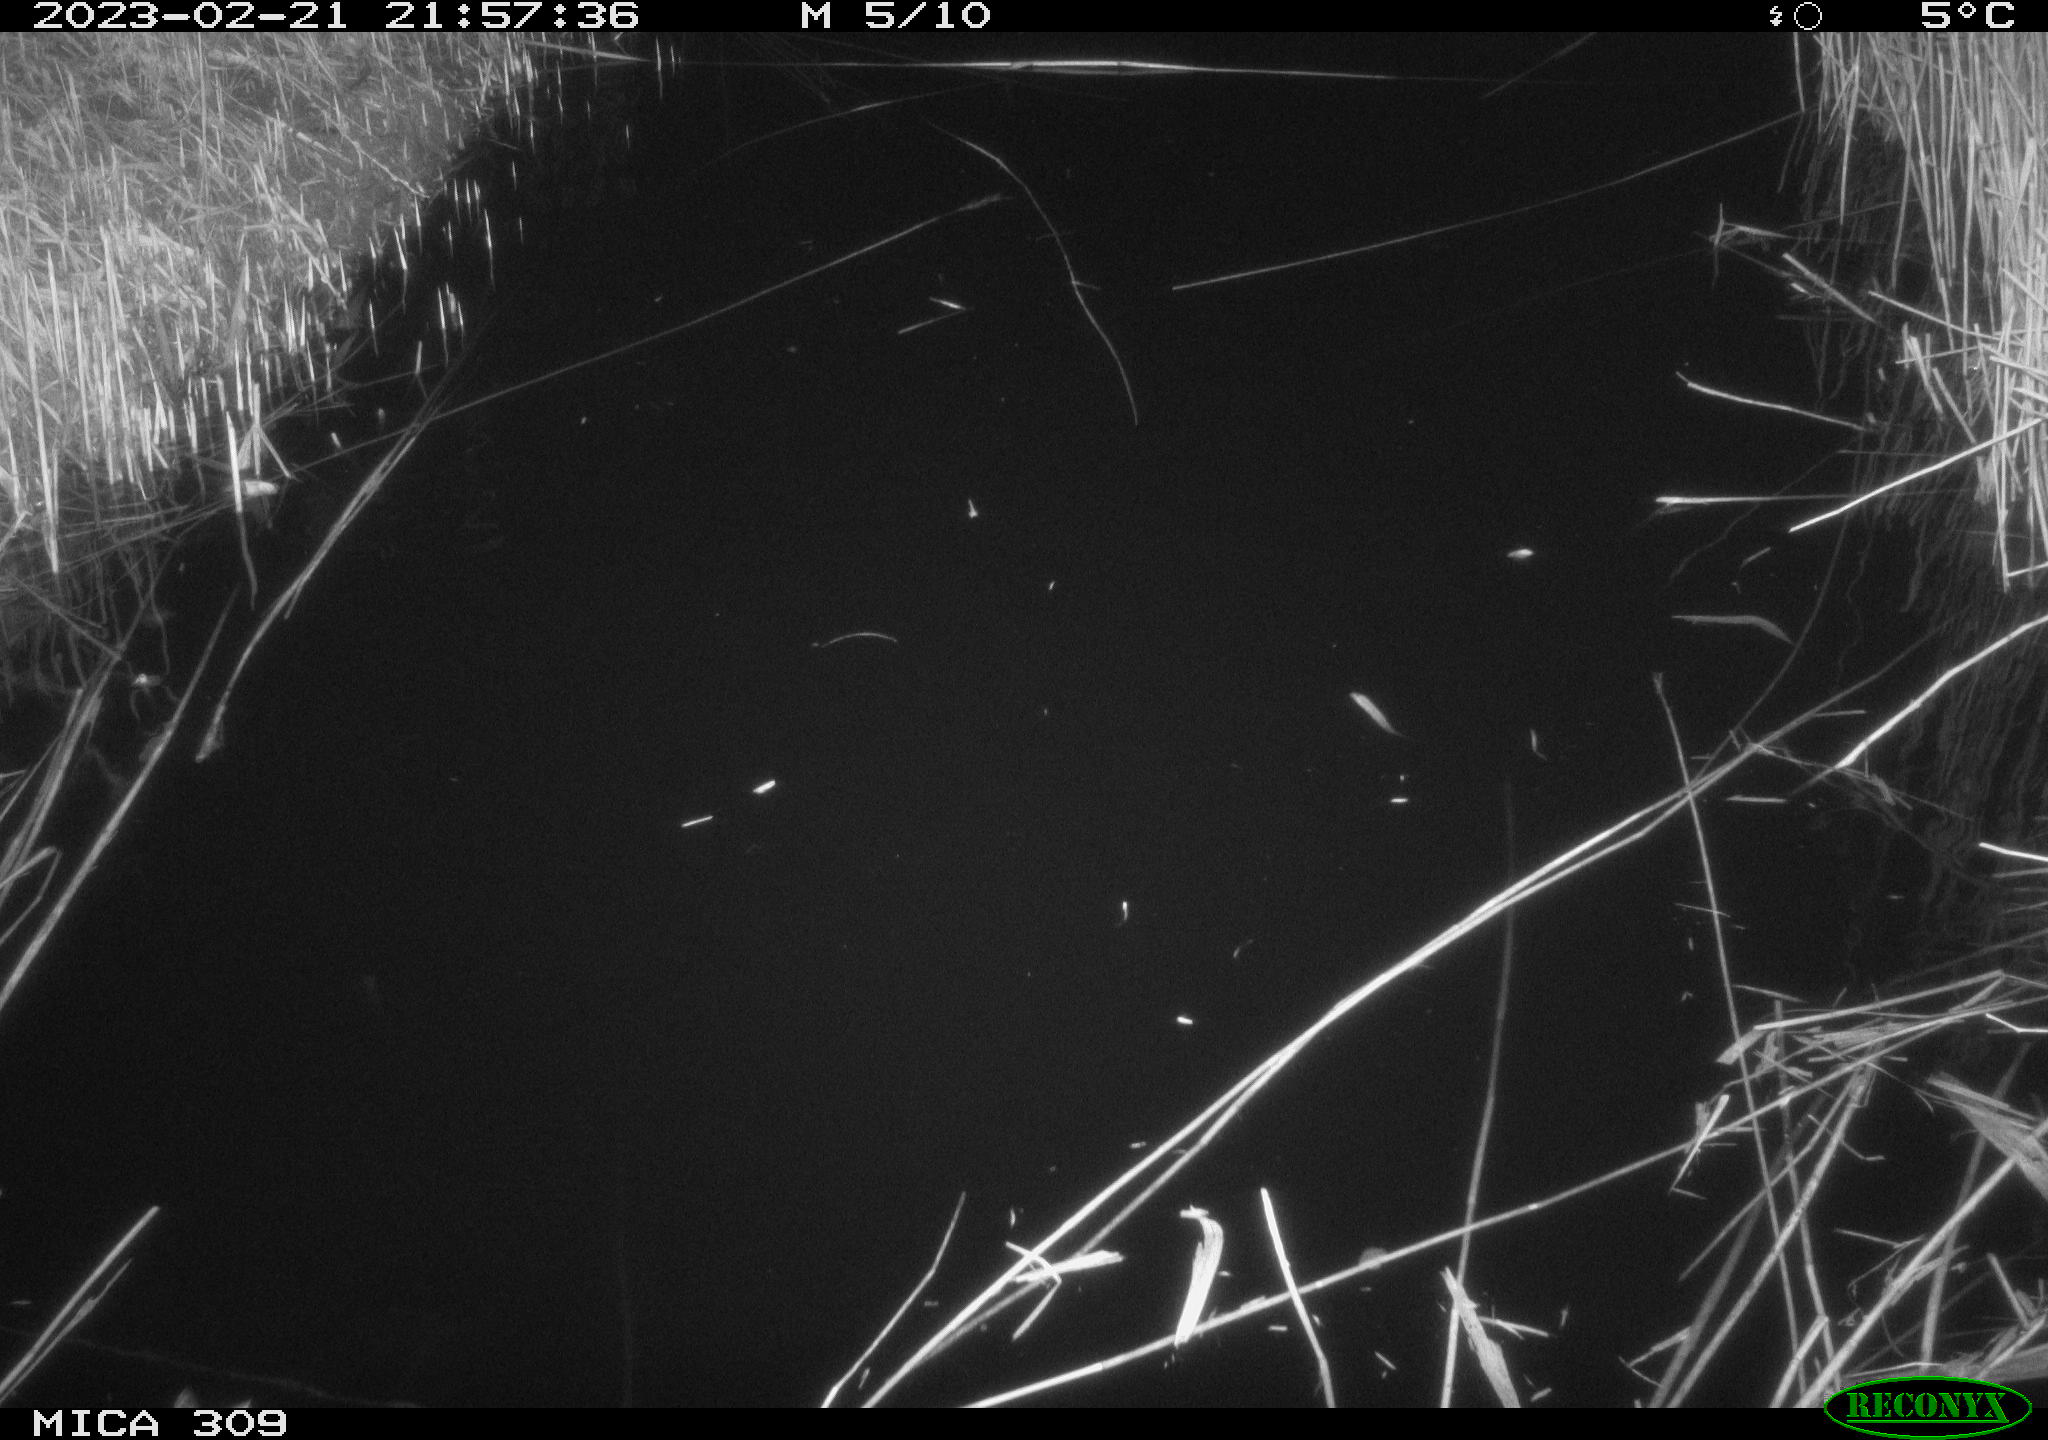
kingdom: Animalia
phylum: Chordata
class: Aves
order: Anseriformes
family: Anatidae
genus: Anas
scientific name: Anas
